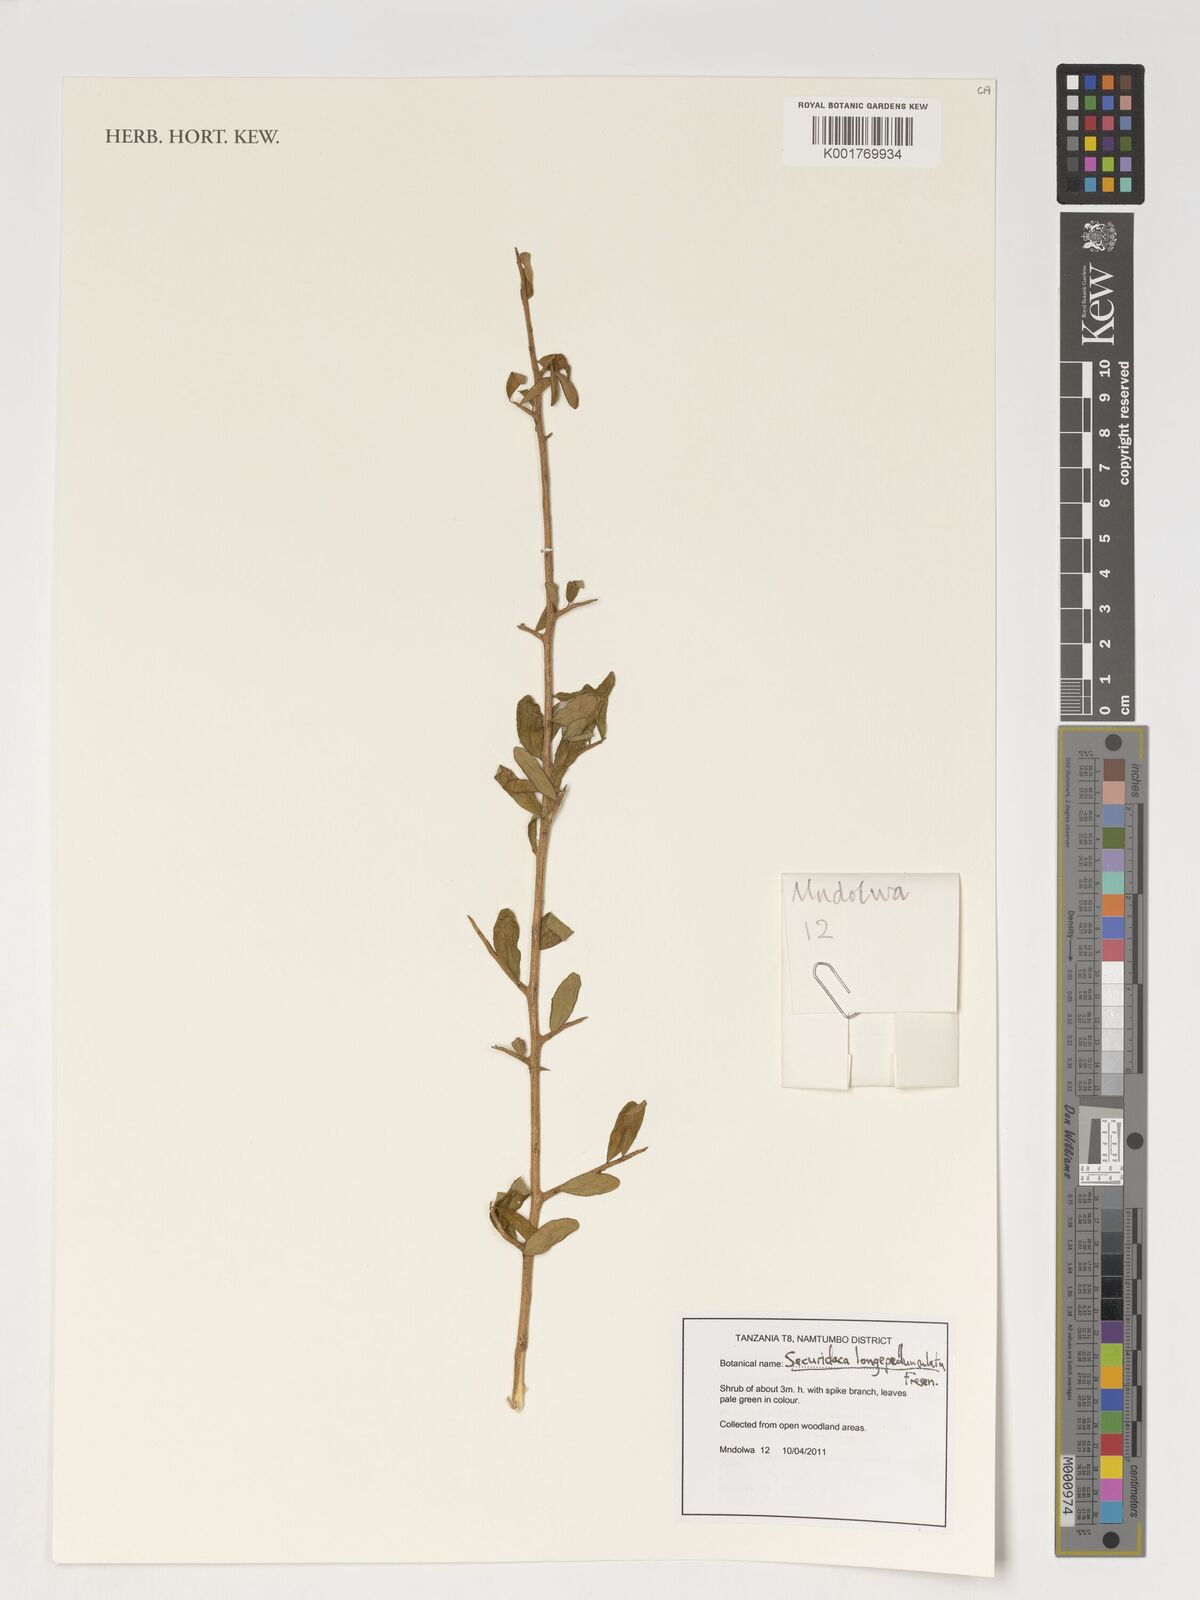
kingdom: Plantae
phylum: Tracheophyta
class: Magnoliopsida
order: Fabales
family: Polygalaceae
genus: Securidaca
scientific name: Securidaca longepedunculata
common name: Violet tree
